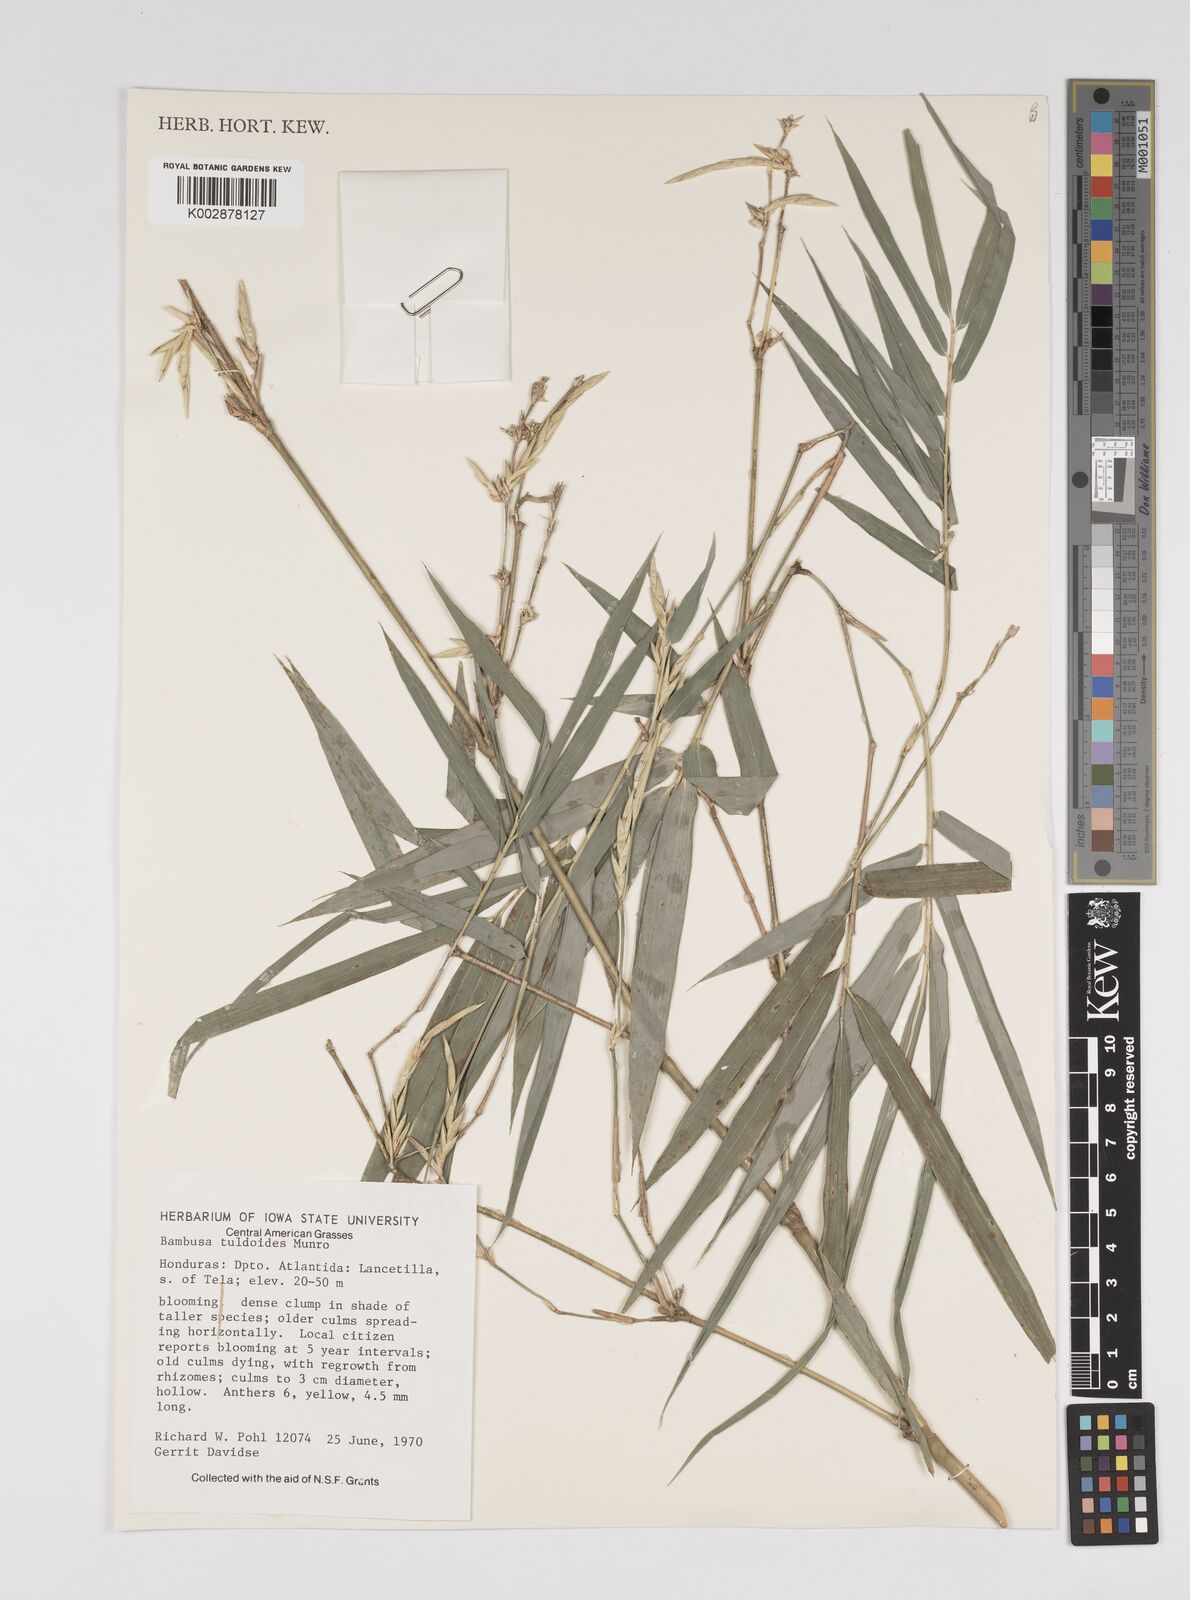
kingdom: Plantae
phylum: Tracheophyta
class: Liliopsida
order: Poales
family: Poaceae
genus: Bambusa
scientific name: Bambusa tuldoides
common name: Verdant bamboo
